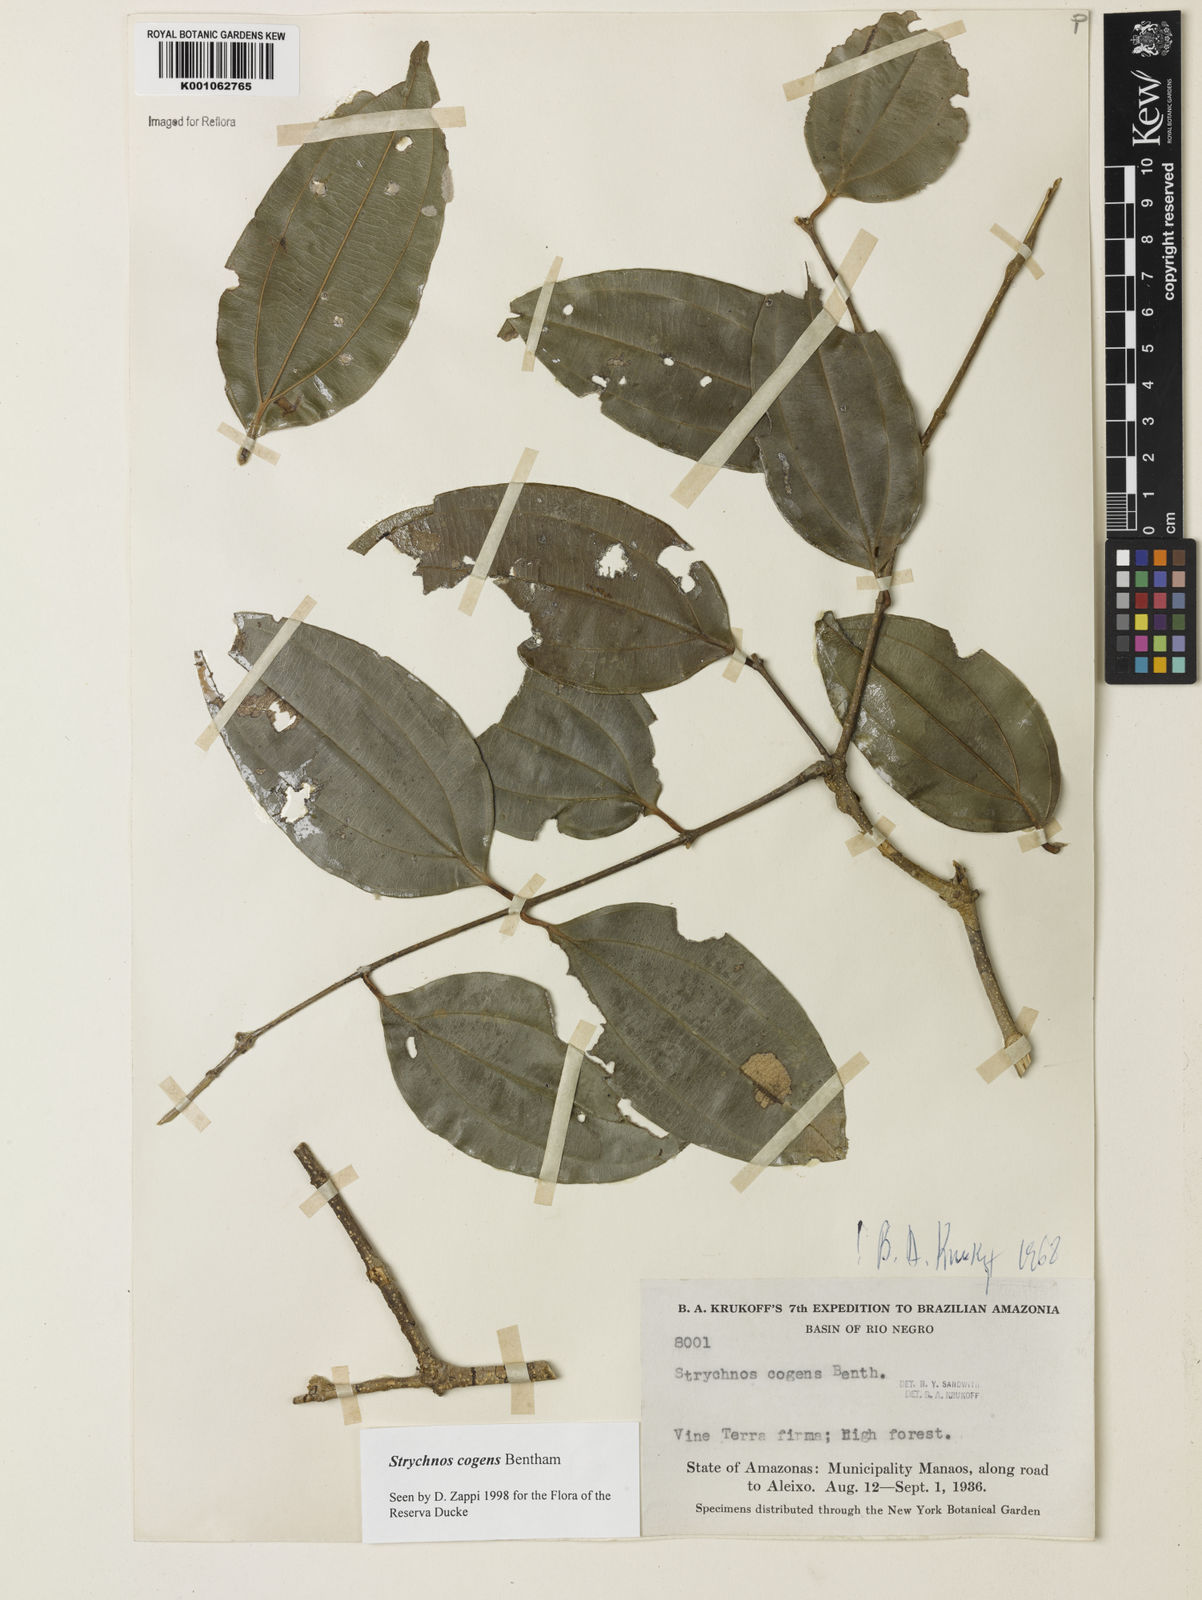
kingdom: Plantae
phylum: Tracheophyta
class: Magnoliopsida
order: Gentianales
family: Loganiaceae
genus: Strychnos
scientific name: Strychnos cogens
